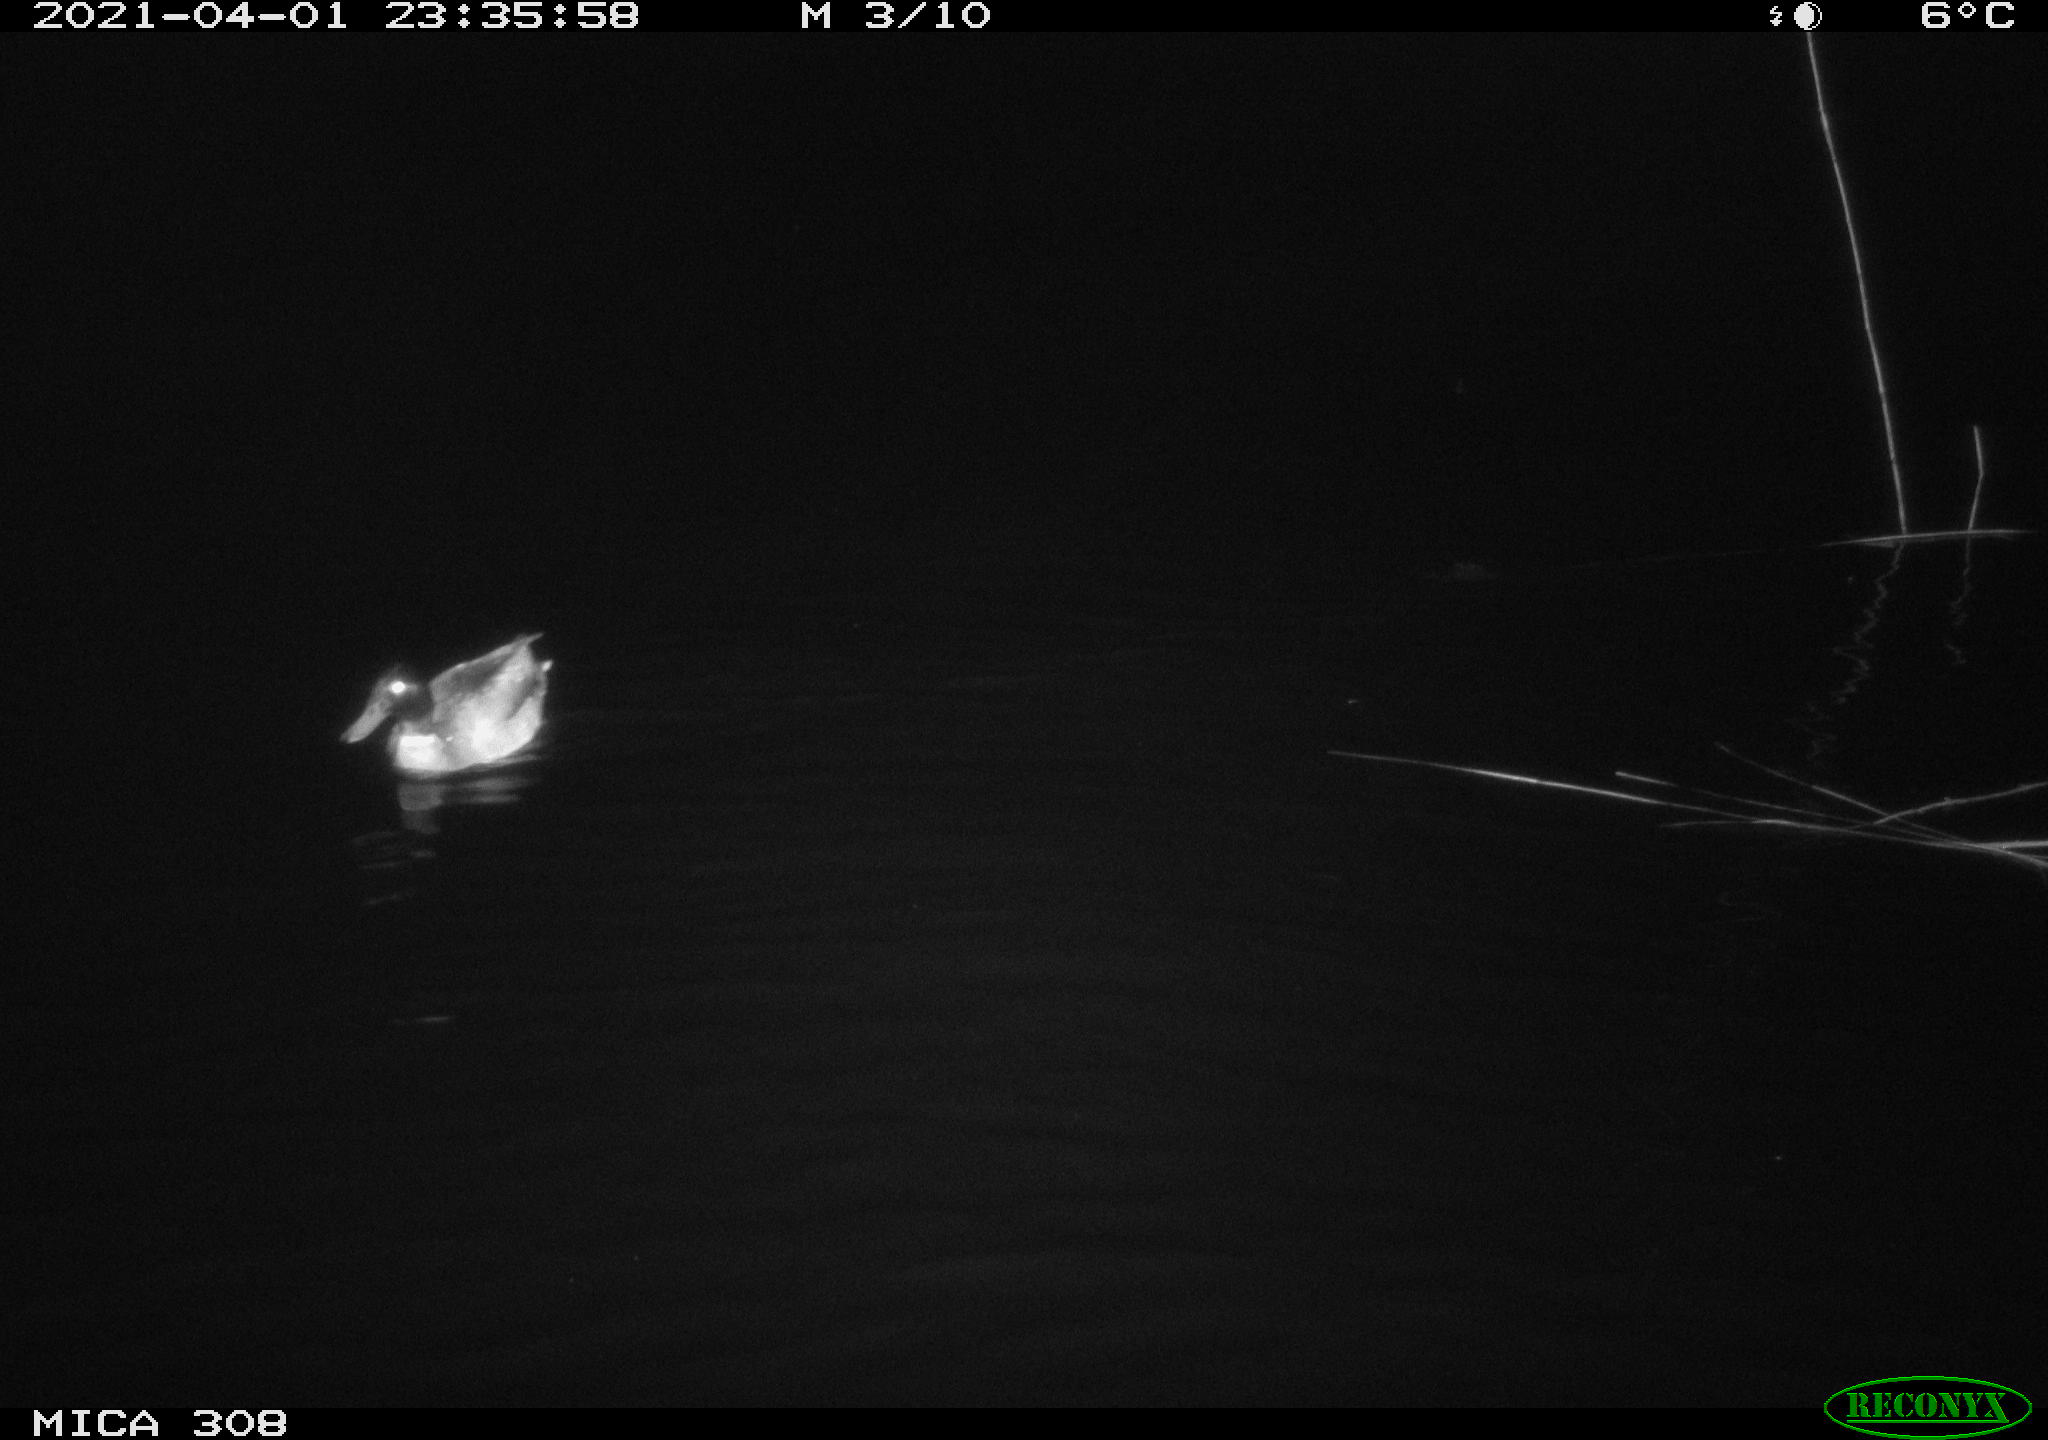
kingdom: Animalia
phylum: Chordata
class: Aves
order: Anseriformes
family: Anatidae
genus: Anas
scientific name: Anas platyrhynchos
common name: Mallard
